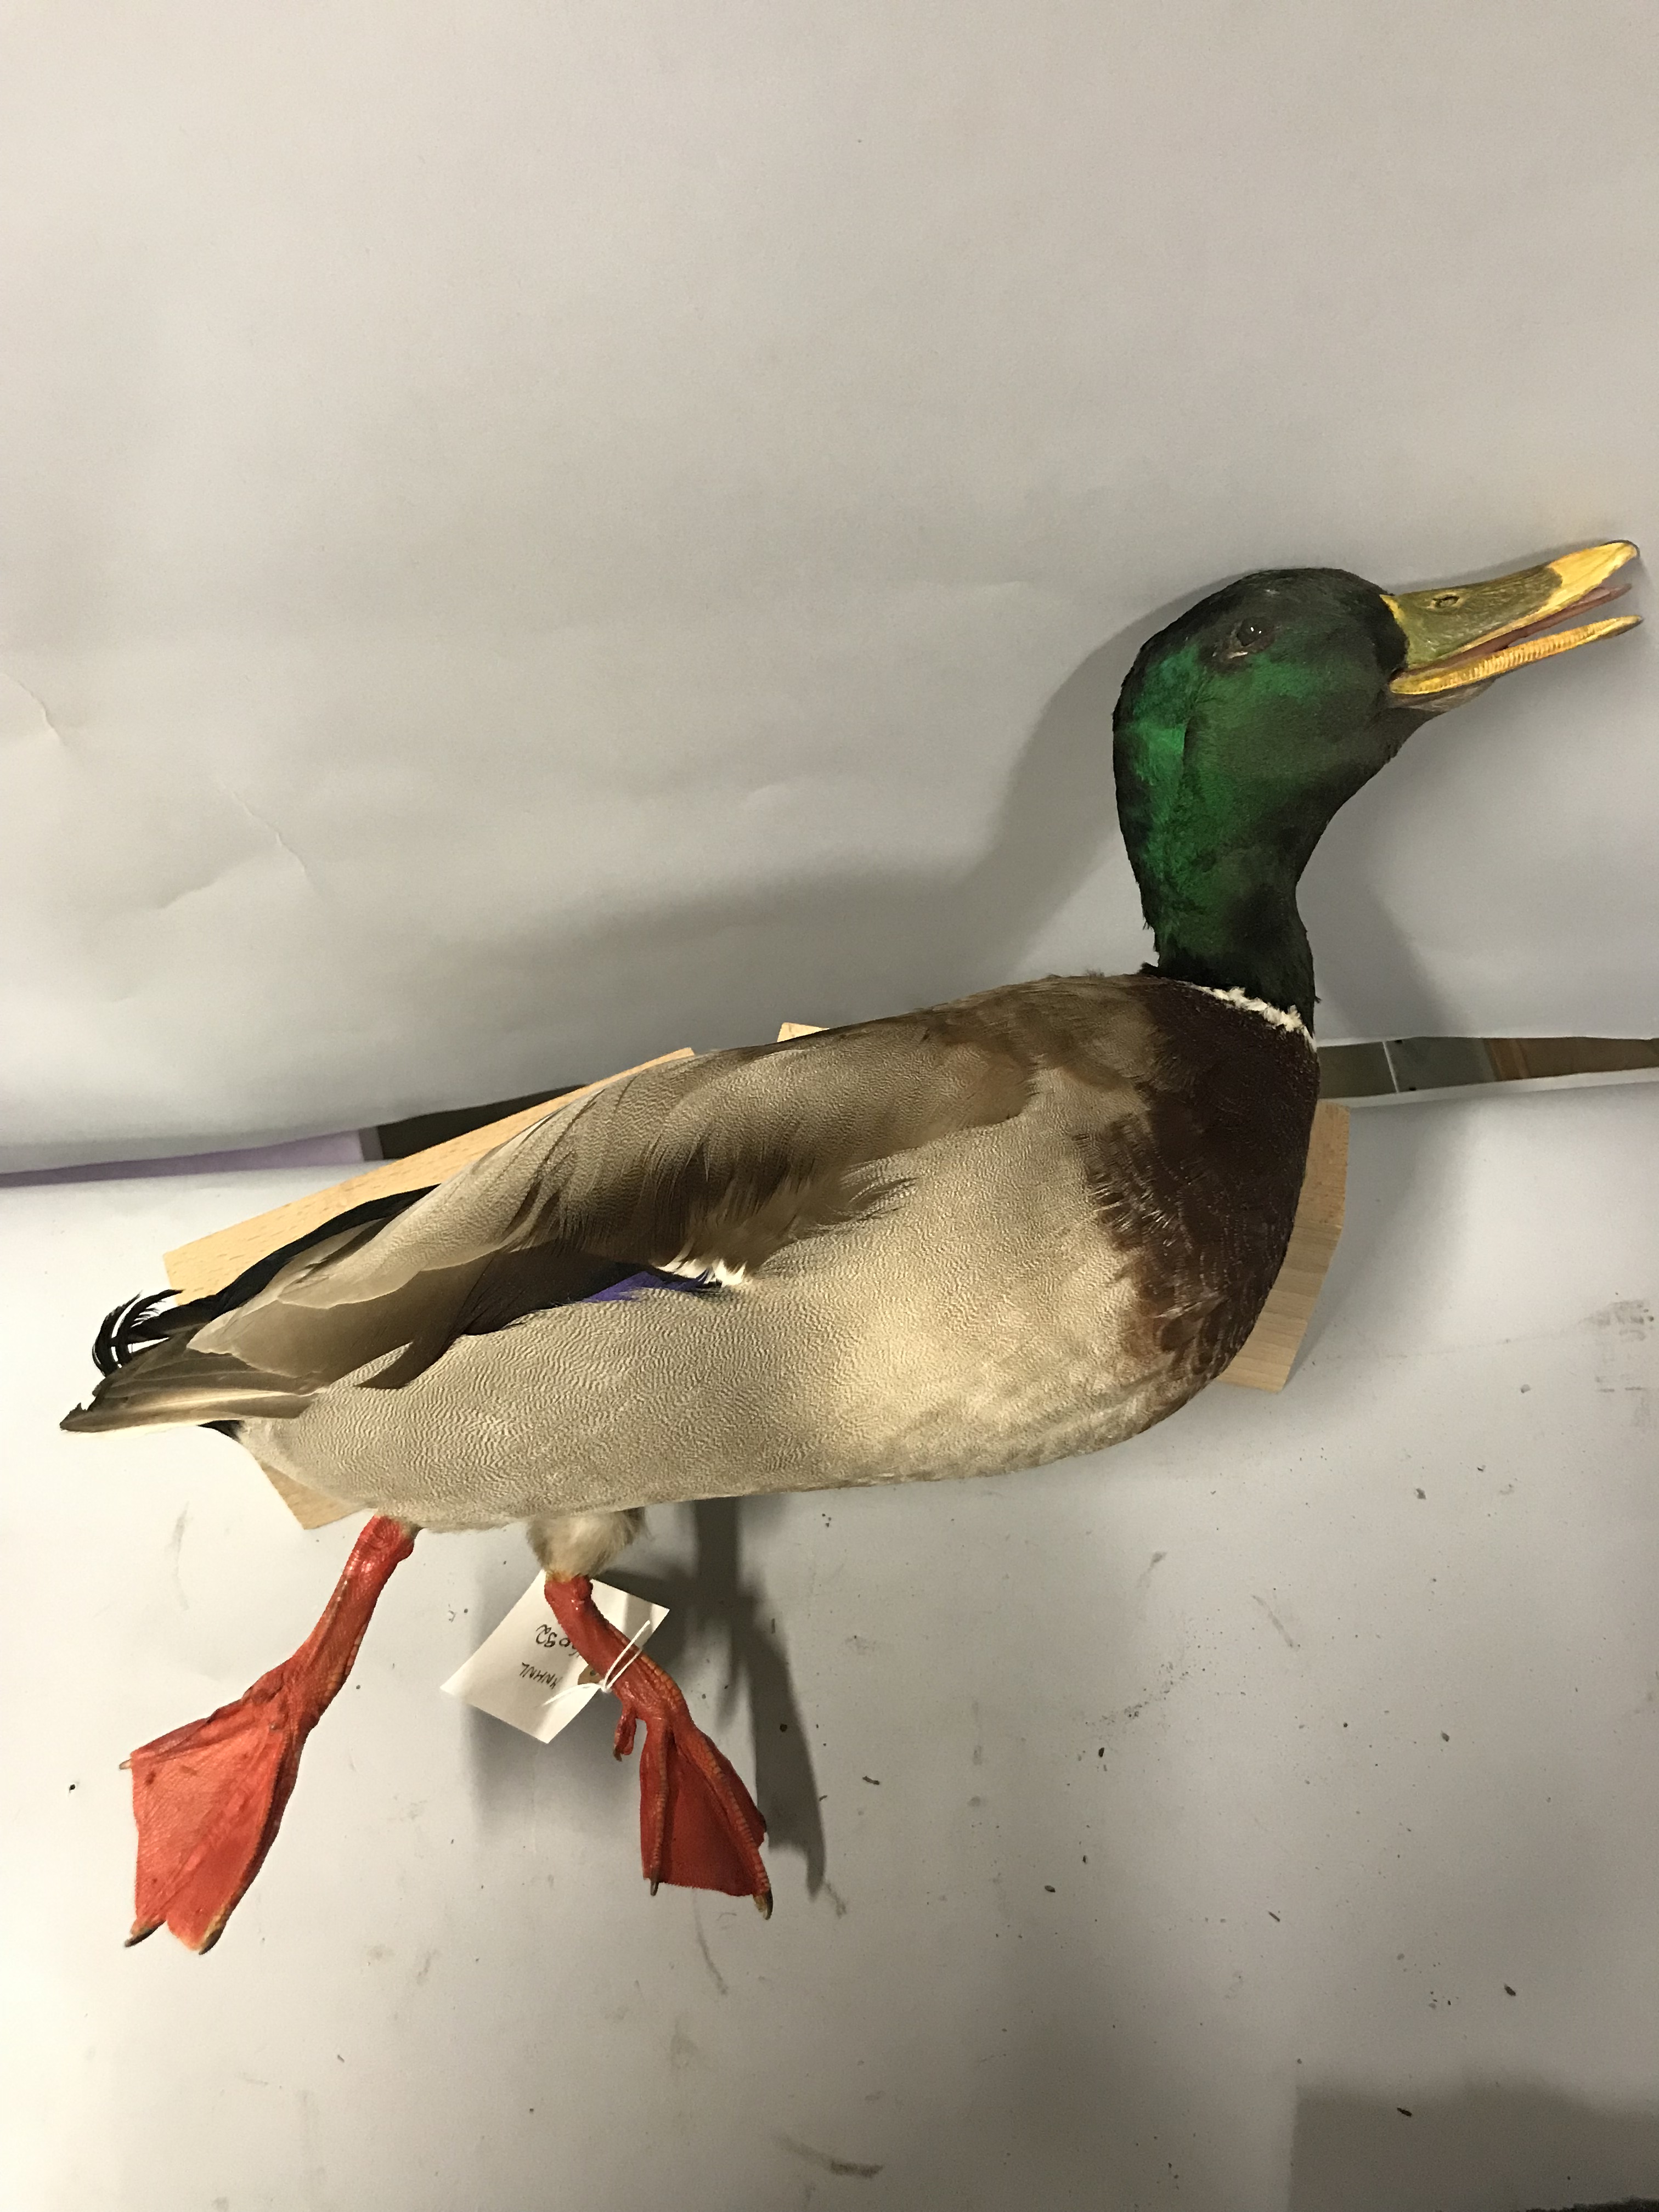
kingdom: Animalia
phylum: Chordata
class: Aves
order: Anseriformes
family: Anatidae
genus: Anas
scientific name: Anas platyrhynchos
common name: Mallard
